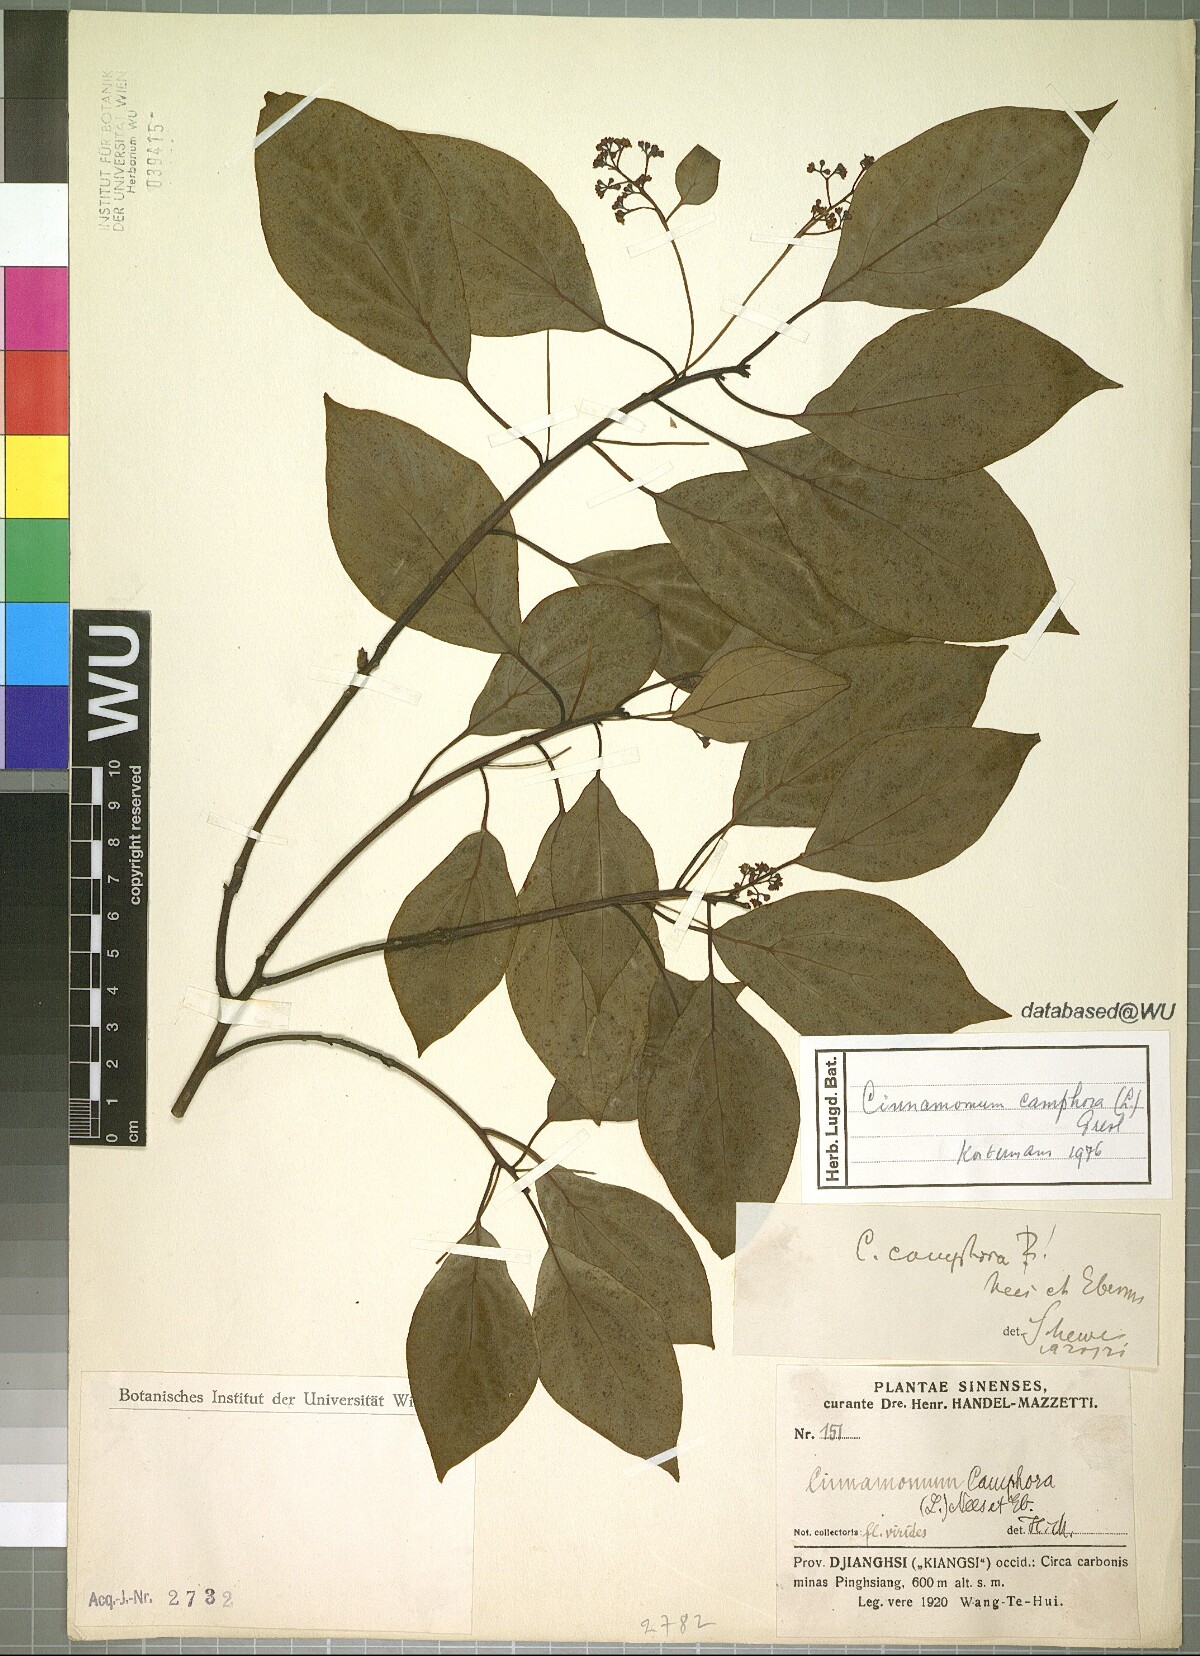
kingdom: Plantae
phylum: Tracheophyta
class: Magnoliopsida
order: Laurales
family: Lauraceae
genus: Cinnamomum
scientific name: Cinnamomum camphora
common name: Camphortree
